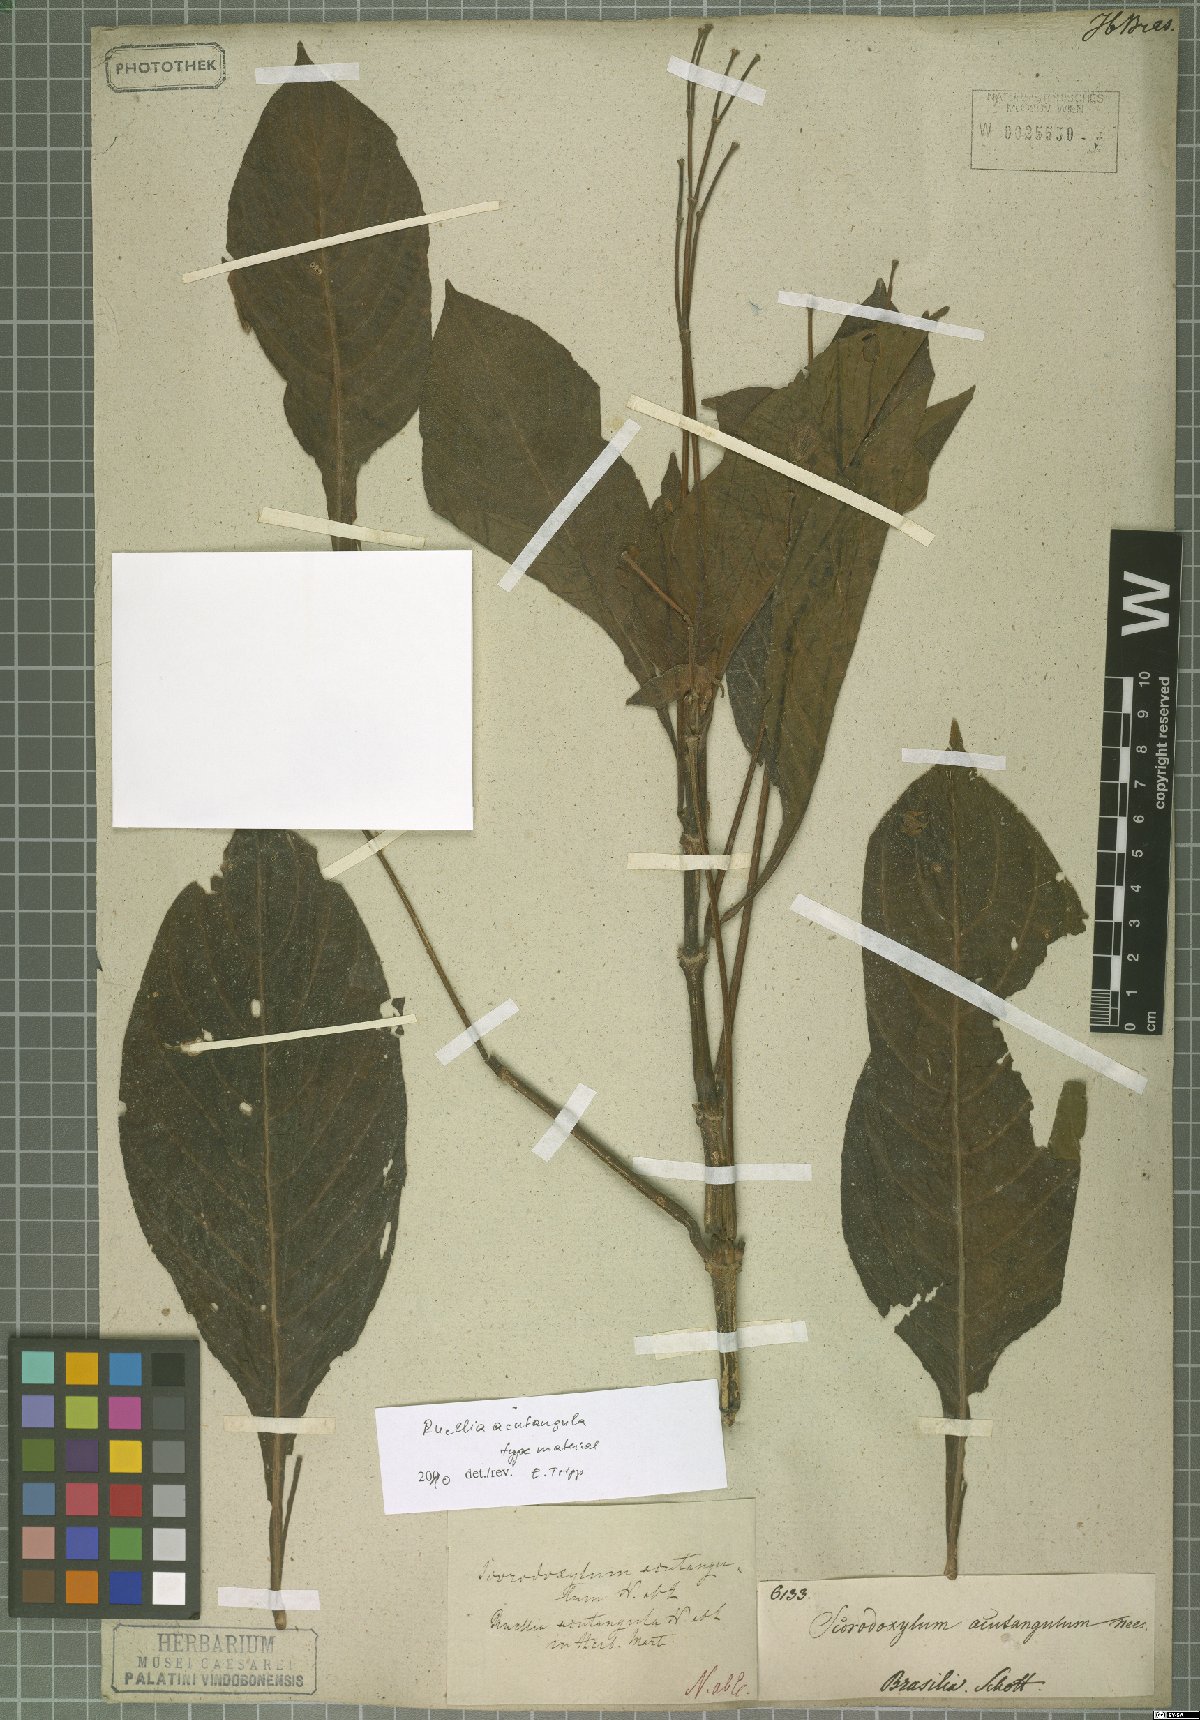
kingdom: Plantae
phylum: Tracheophyta
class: Magnoliopsida
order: Lamiales
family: Acanthaceae
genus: Ruellia
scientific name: Ruellia acutangula
